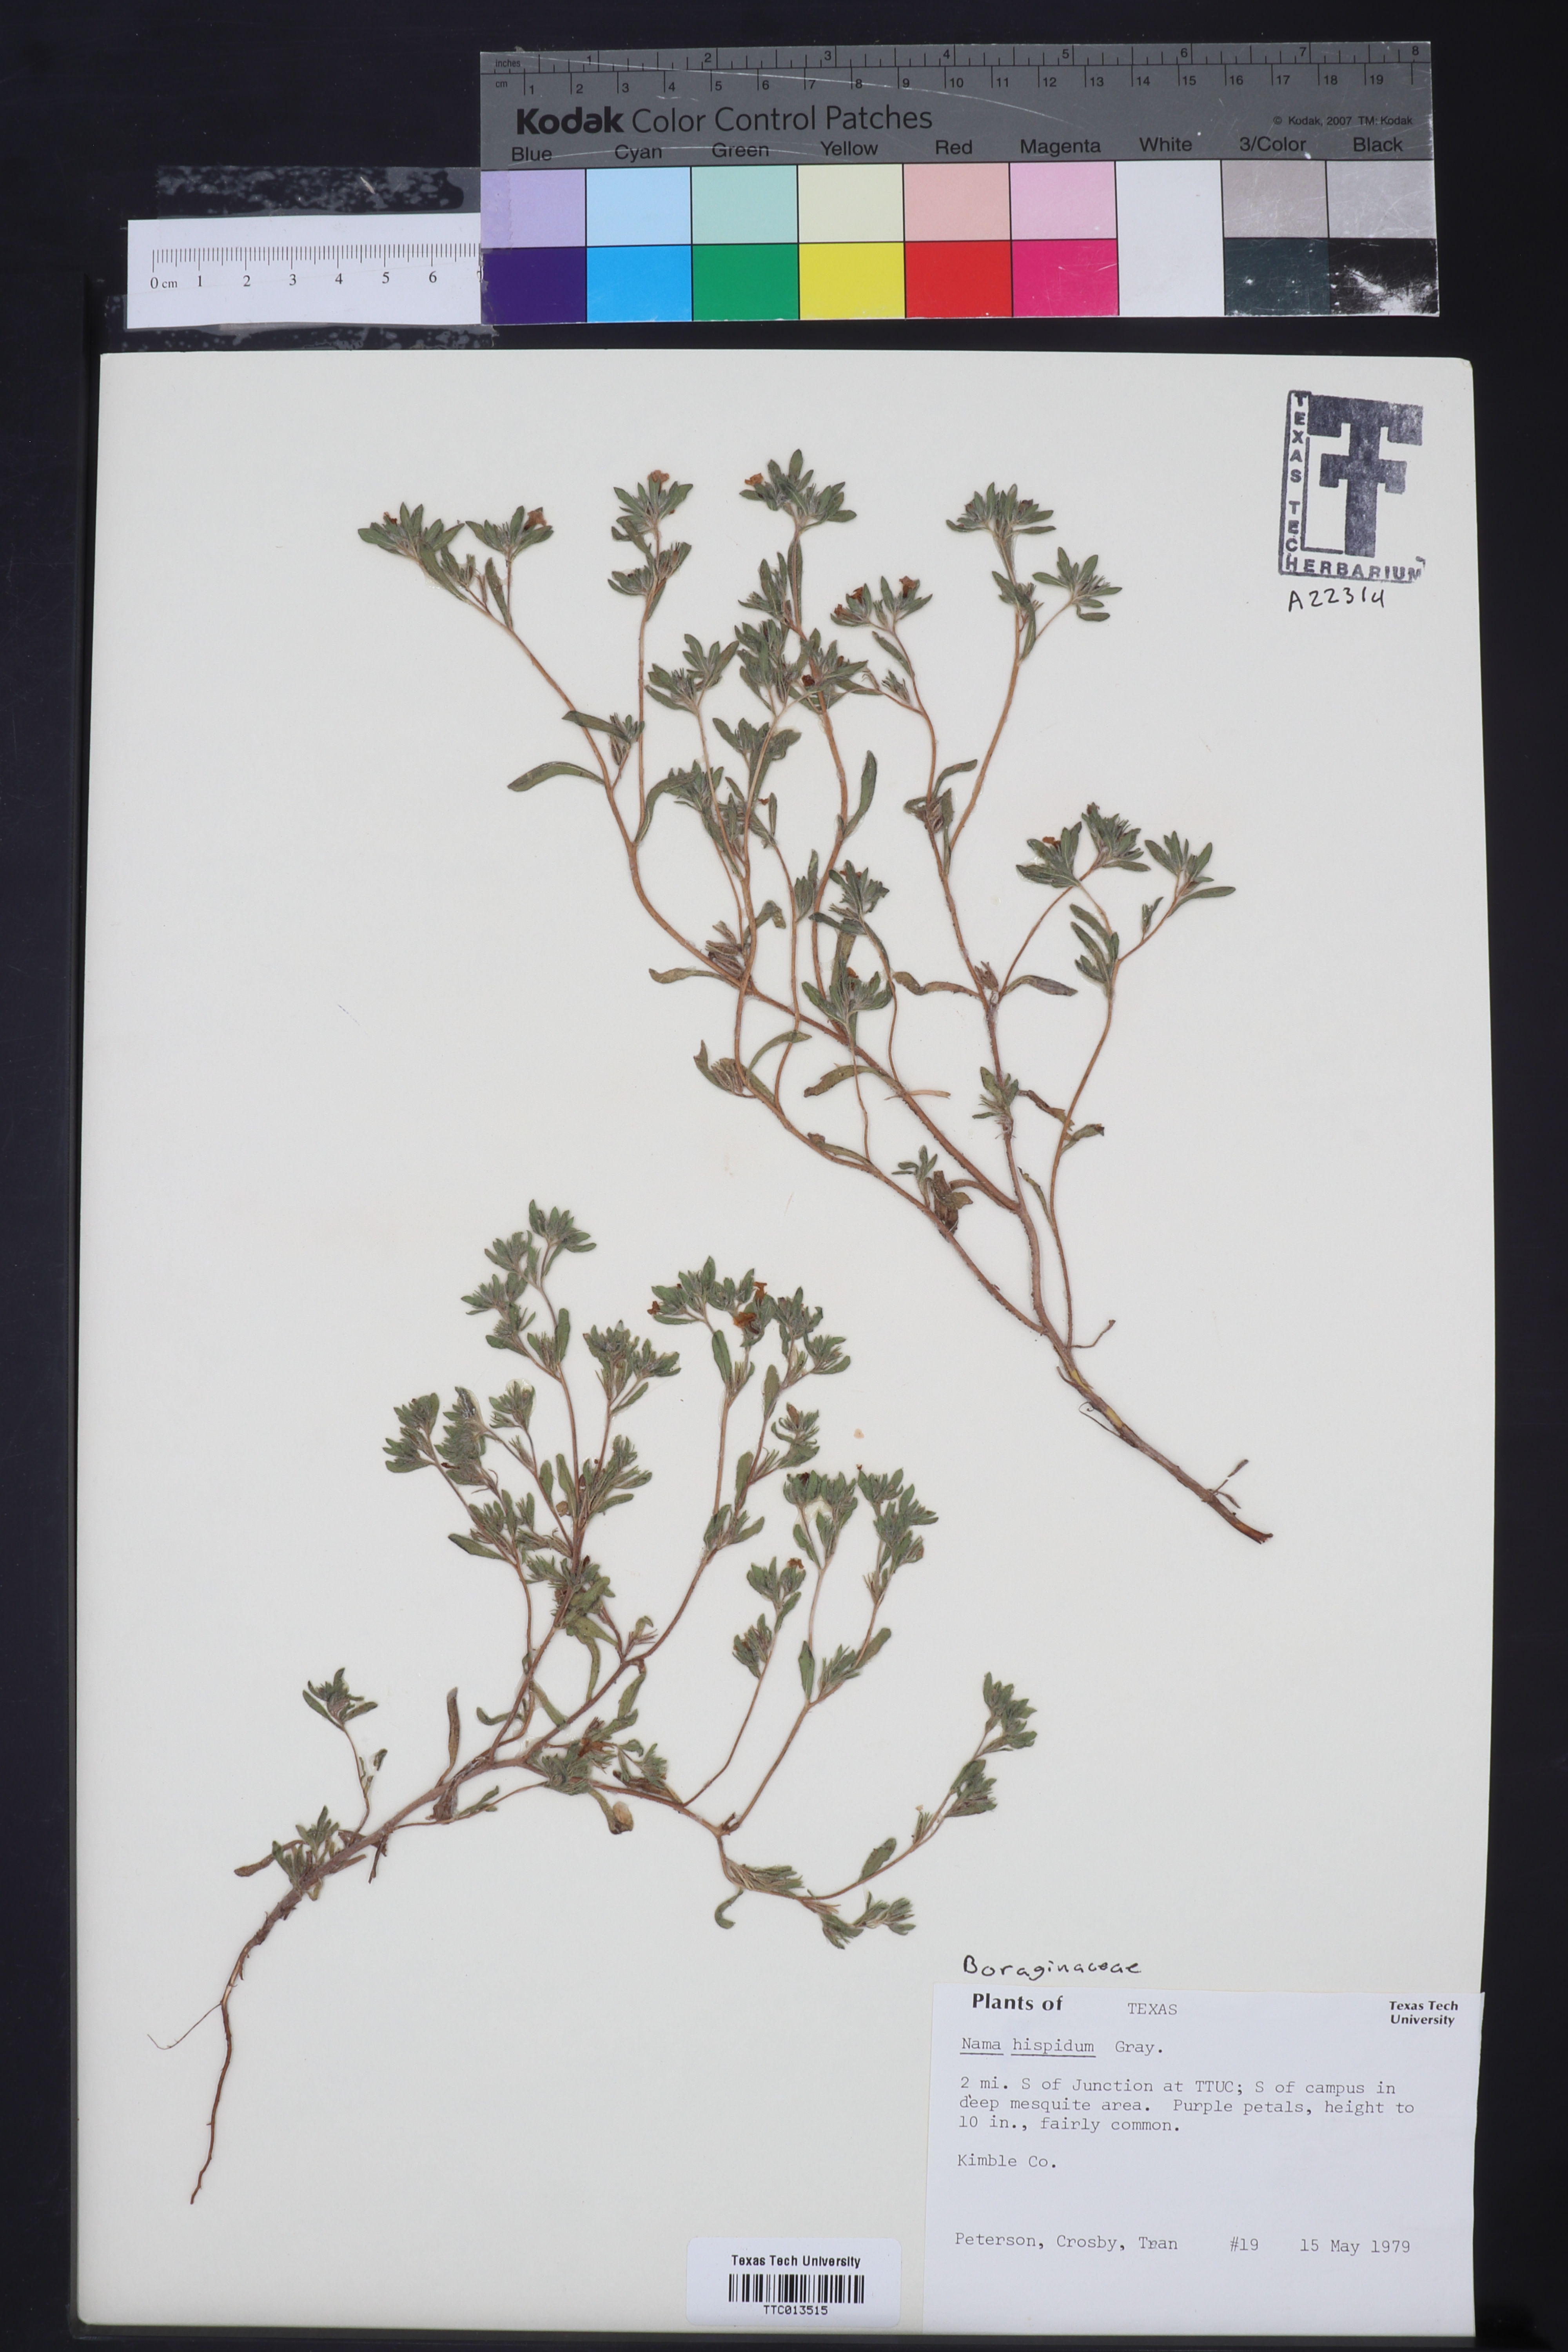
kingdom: Plantae
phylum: Tracheophyta
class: Magnoliopsida
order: Boraginales
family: Namaceae
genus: Nama
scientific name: Nama hispida
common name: Bristly nama
